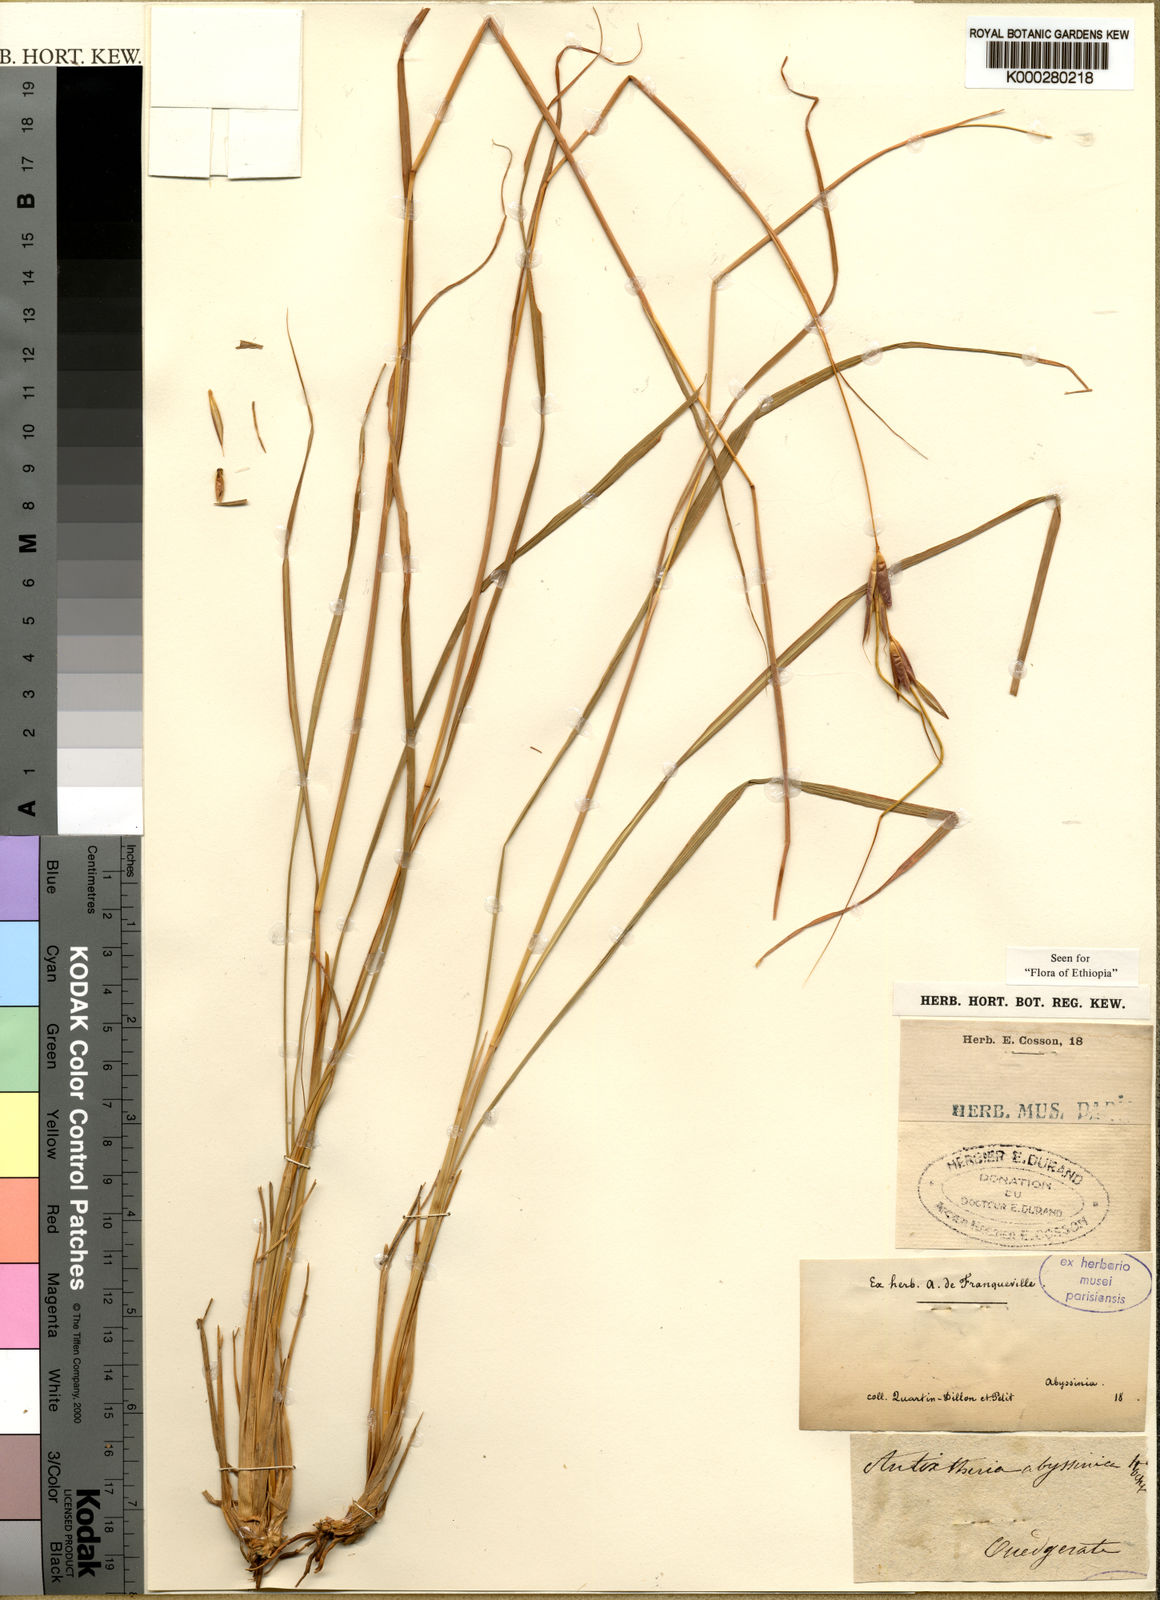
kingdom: Plantae
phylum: Tracheophyta
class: Liliopsida
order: Poales
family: Poaceae
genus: Exotheca
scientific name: Exotheca abyssinica
